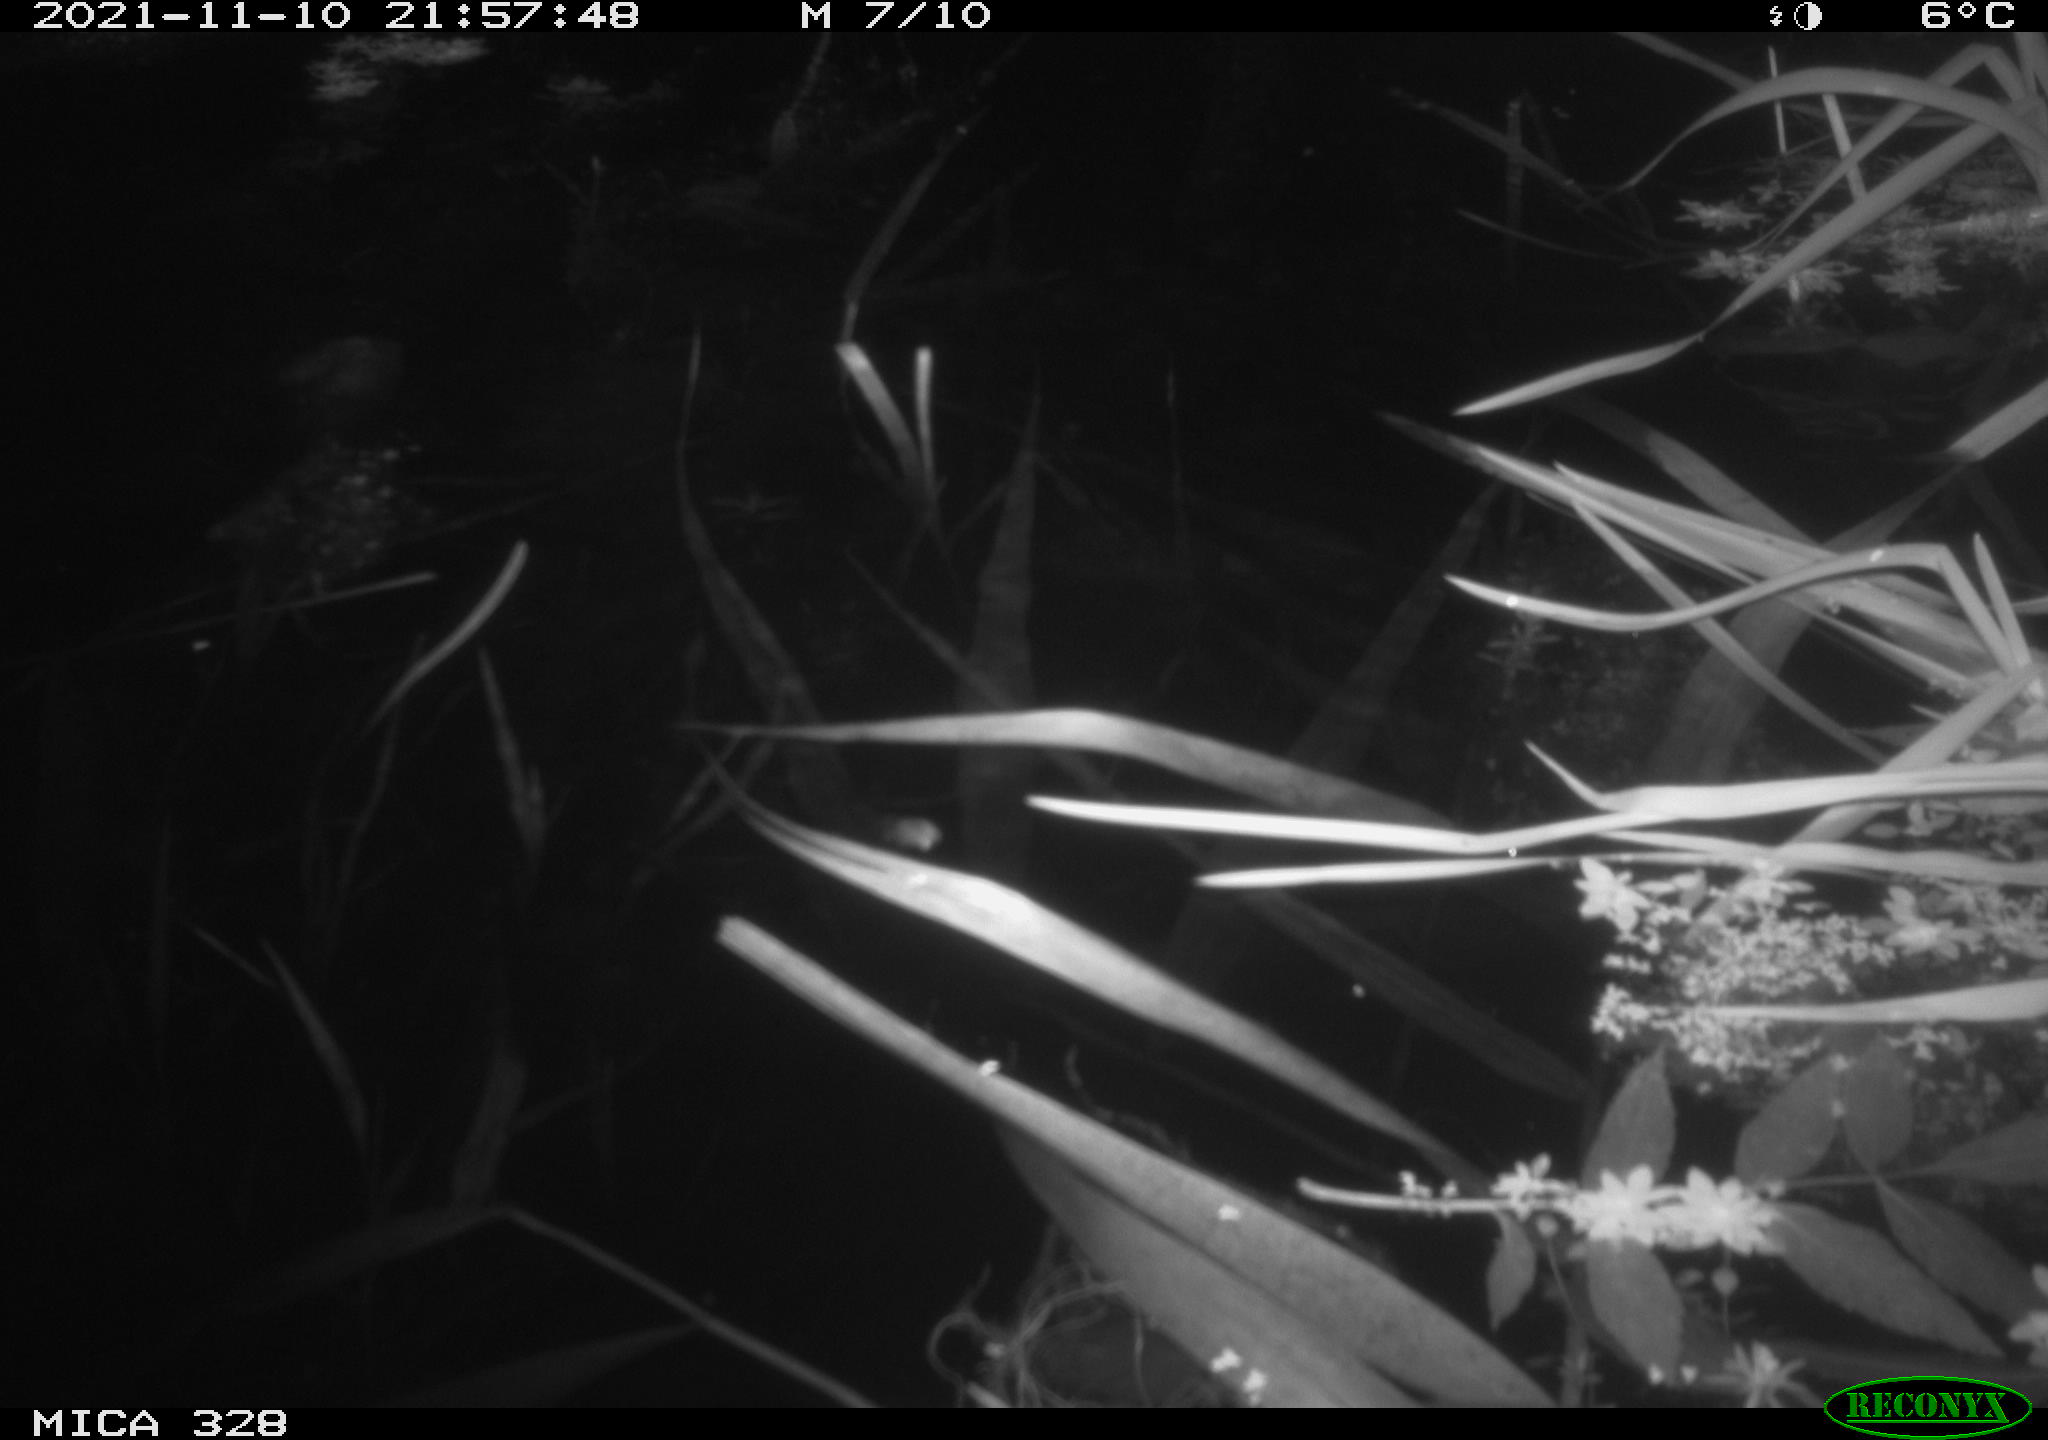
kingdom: Animalia
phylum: Chordata
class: Mammalia
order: Rodentia
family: Cricetidae
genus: Ondatra
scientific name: Ondatra zibethicus
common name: Muskrat
